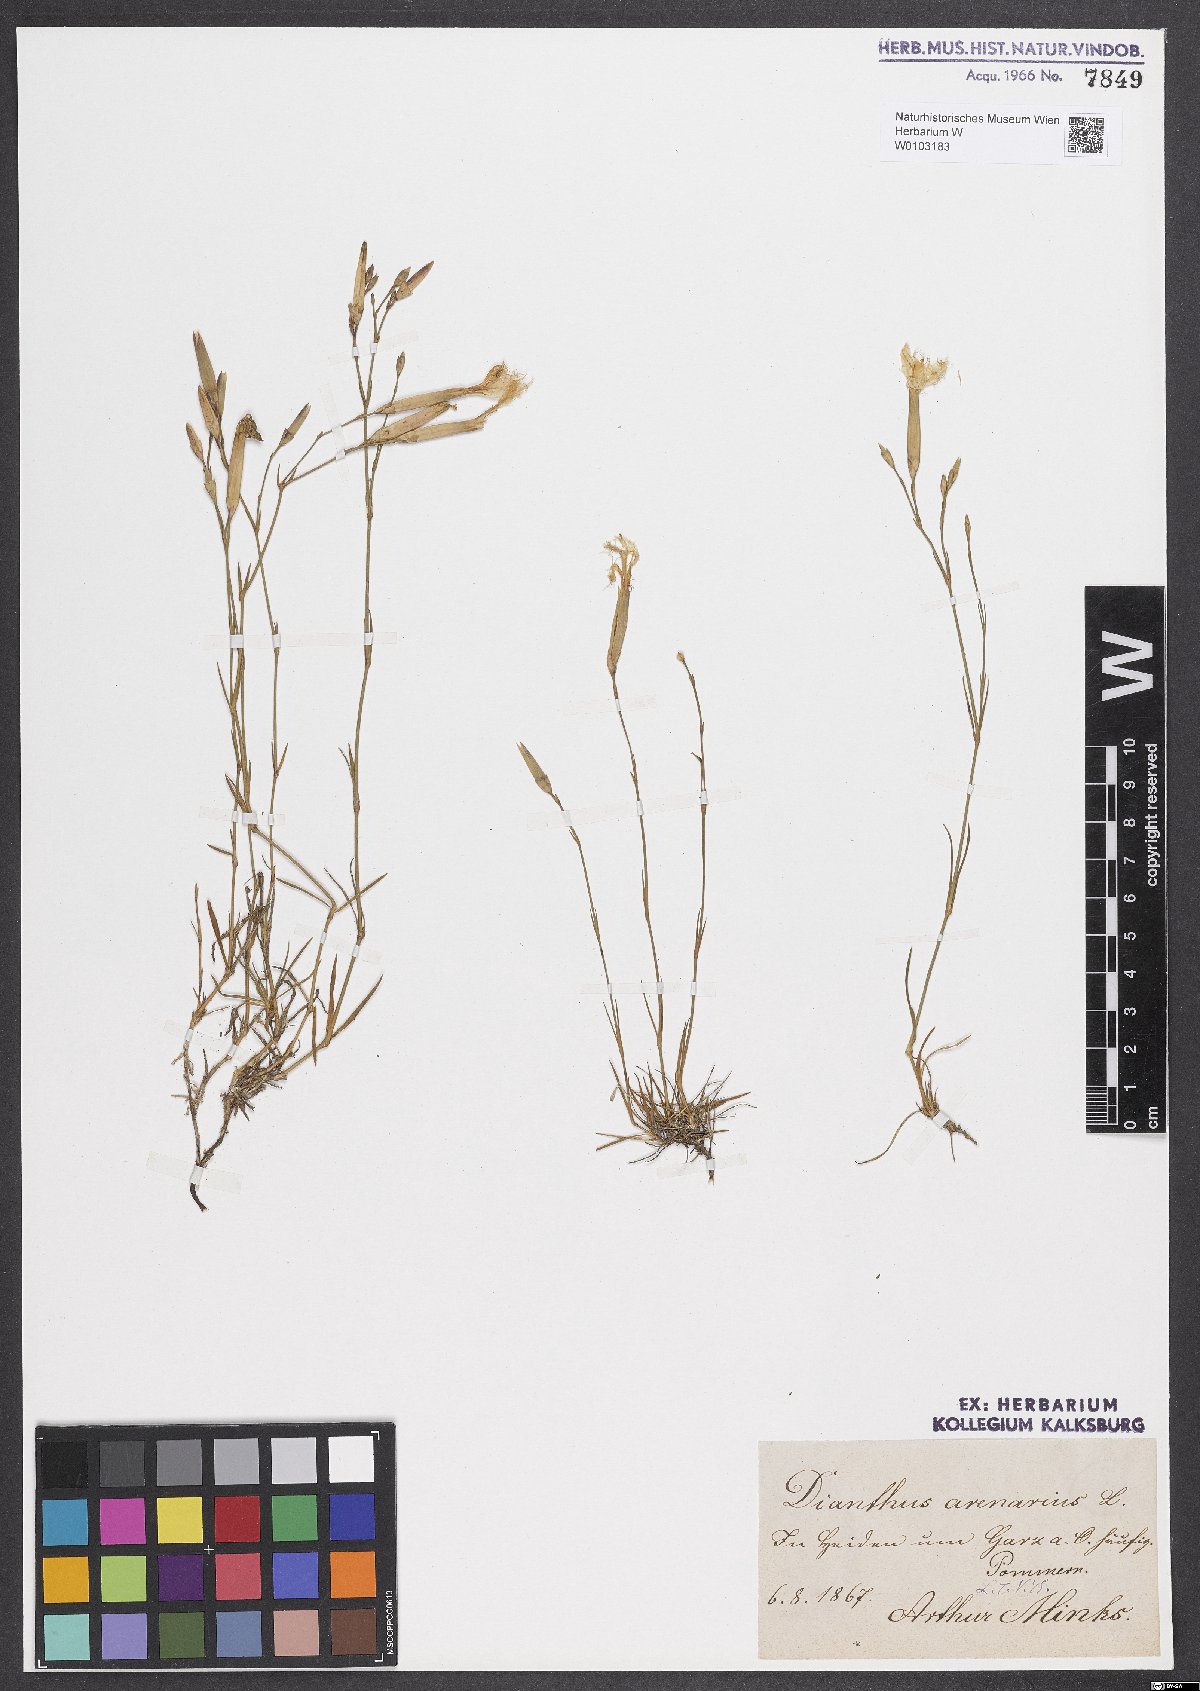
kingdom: Plantae
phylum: Tracheophyta
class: Magnoliopsida
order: Caryophyllales
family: Caryophyllaceae
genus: Dianthus
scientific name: Dianthus arenarius
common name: Stone pink
